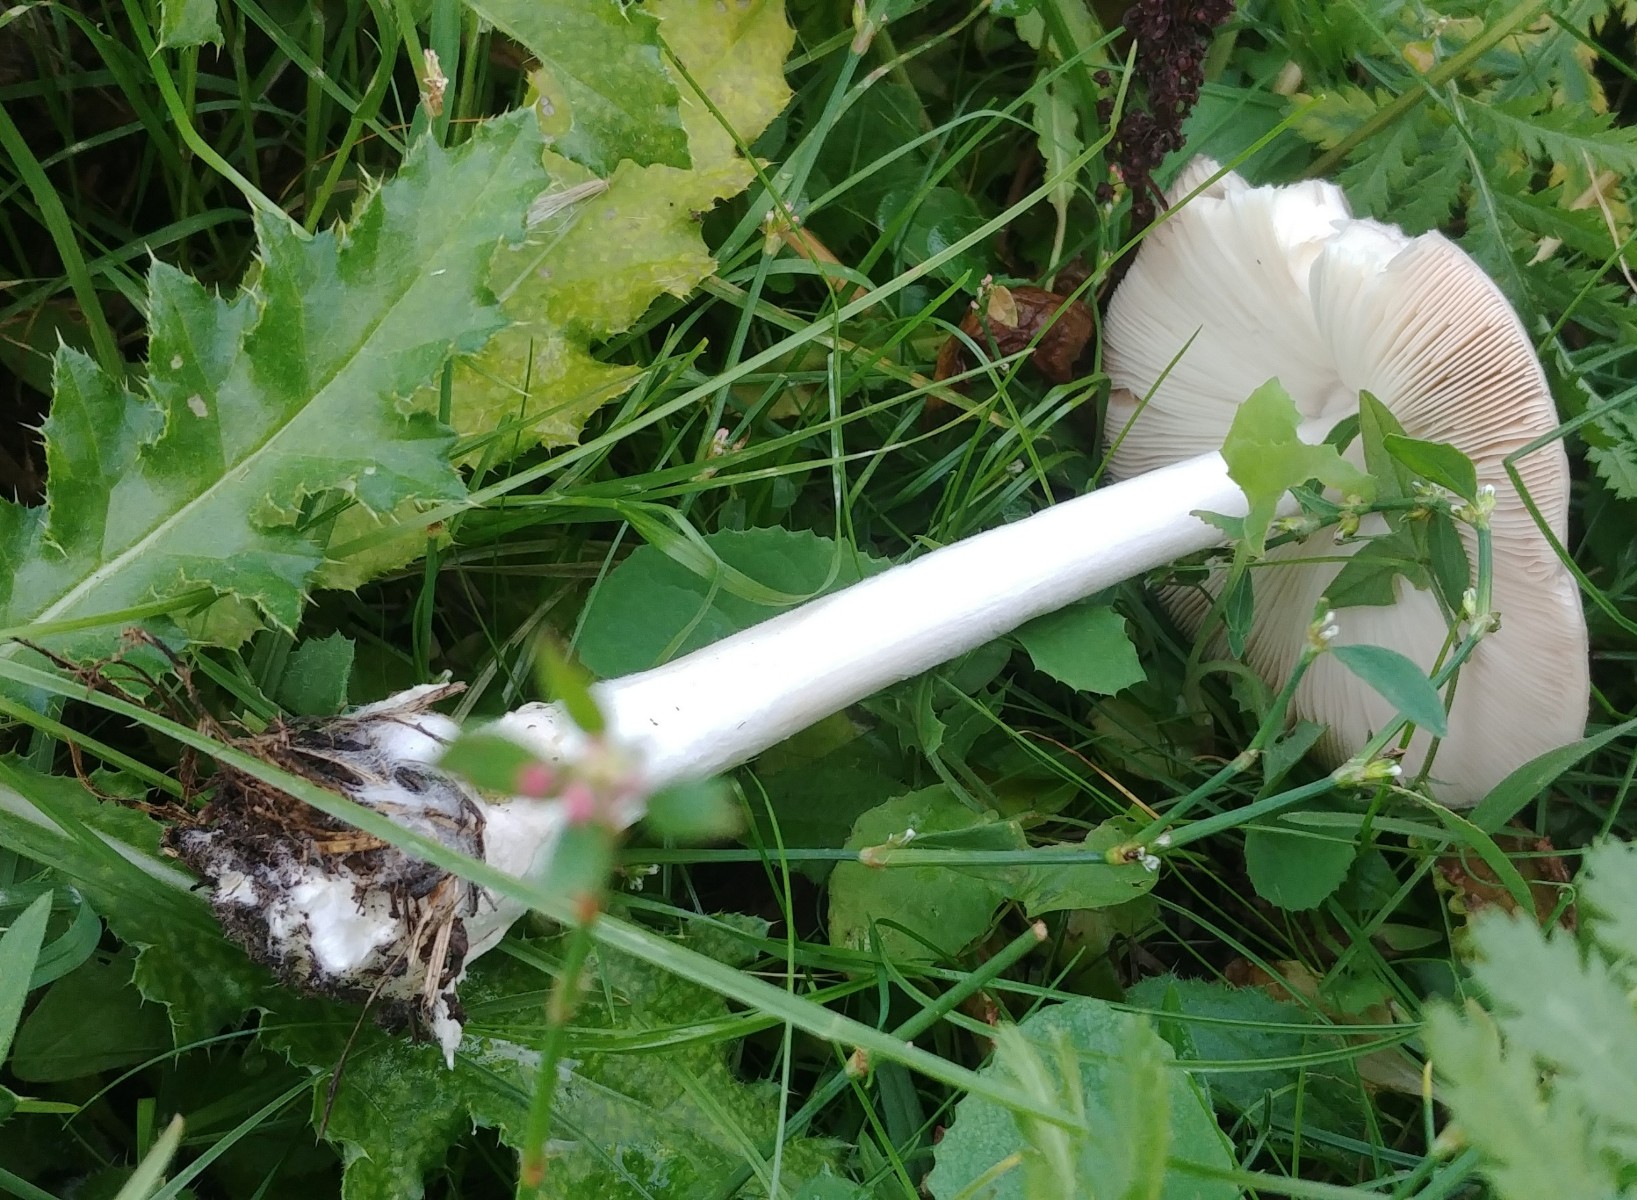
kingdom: Fungi
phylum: Basidiomycota
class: Agaricomycetes
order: Agaricales
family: Pluteaceae
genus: Volvopluteus
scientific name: Volvopluteus gloiocephalus
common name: høj posesvamp
